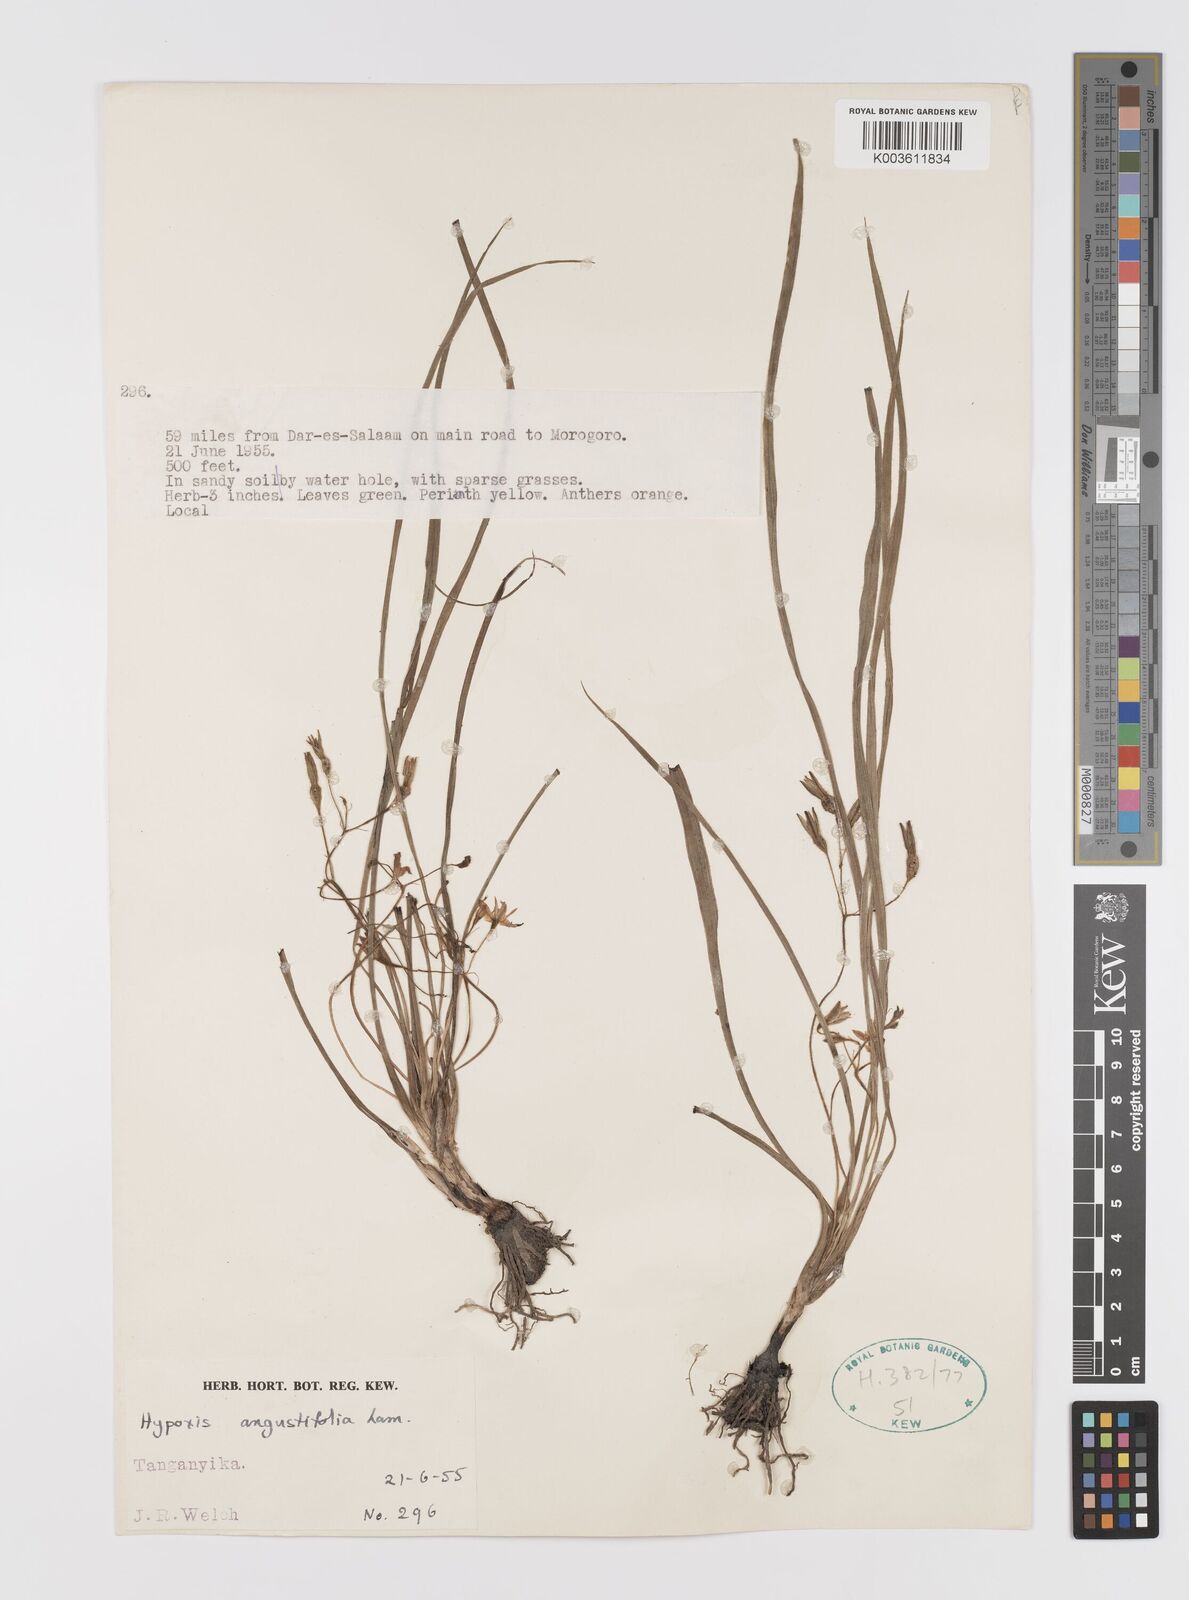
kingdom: Plantae
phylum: Tracheophyta
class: Liliopsida
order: Asparagales
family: Hypoxidaceae
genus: Hypoxis
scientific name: Hypoxis angustifolia
